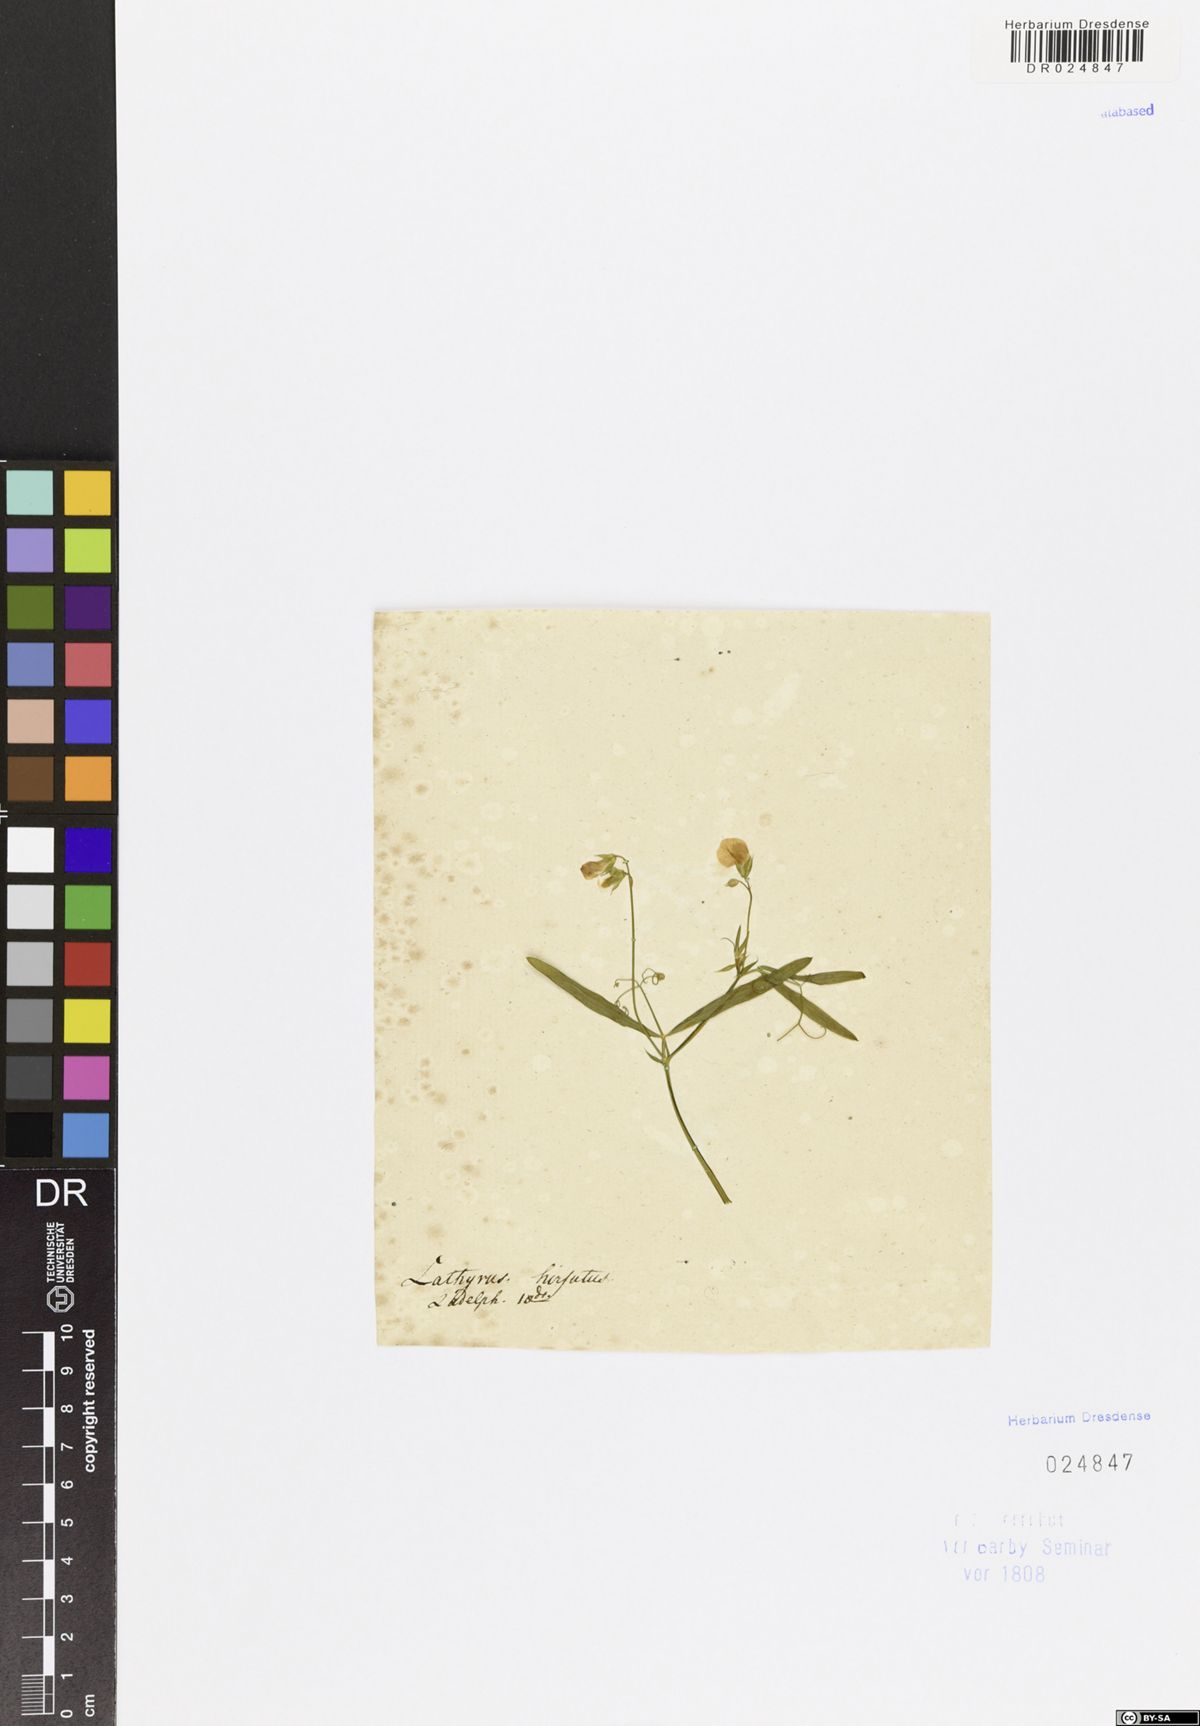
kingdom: Plantae
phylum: Tracheophyta
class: Magnoliopsida
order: Fabales
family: Fabaceae
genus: Lathyrus
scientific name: Lathyrus hirsutus
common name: Hairy vetchling
